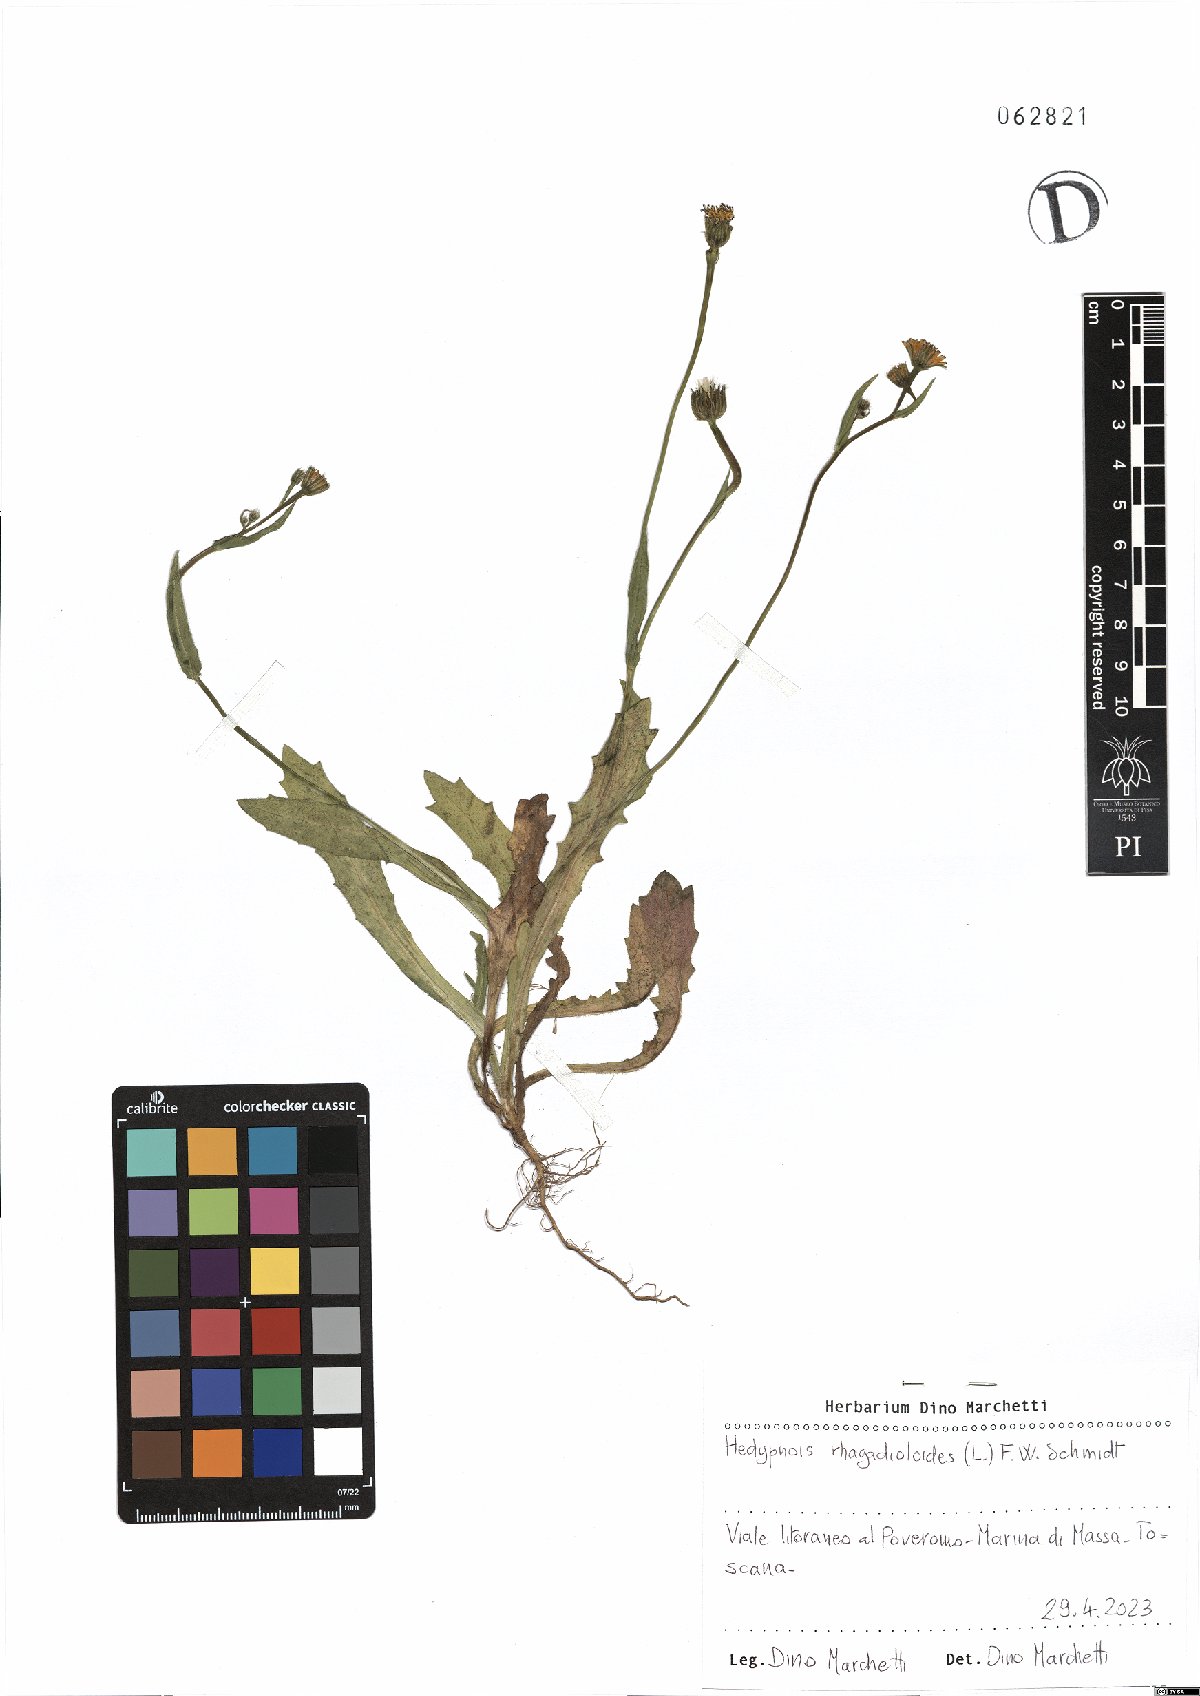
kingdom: Plantae
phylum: Tracheophyta
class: Magnoliopsida
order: Asterales
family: Asteraceae
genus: Hedypnois
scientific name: Hedypnois rhagadioloides
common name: Cretan weed
